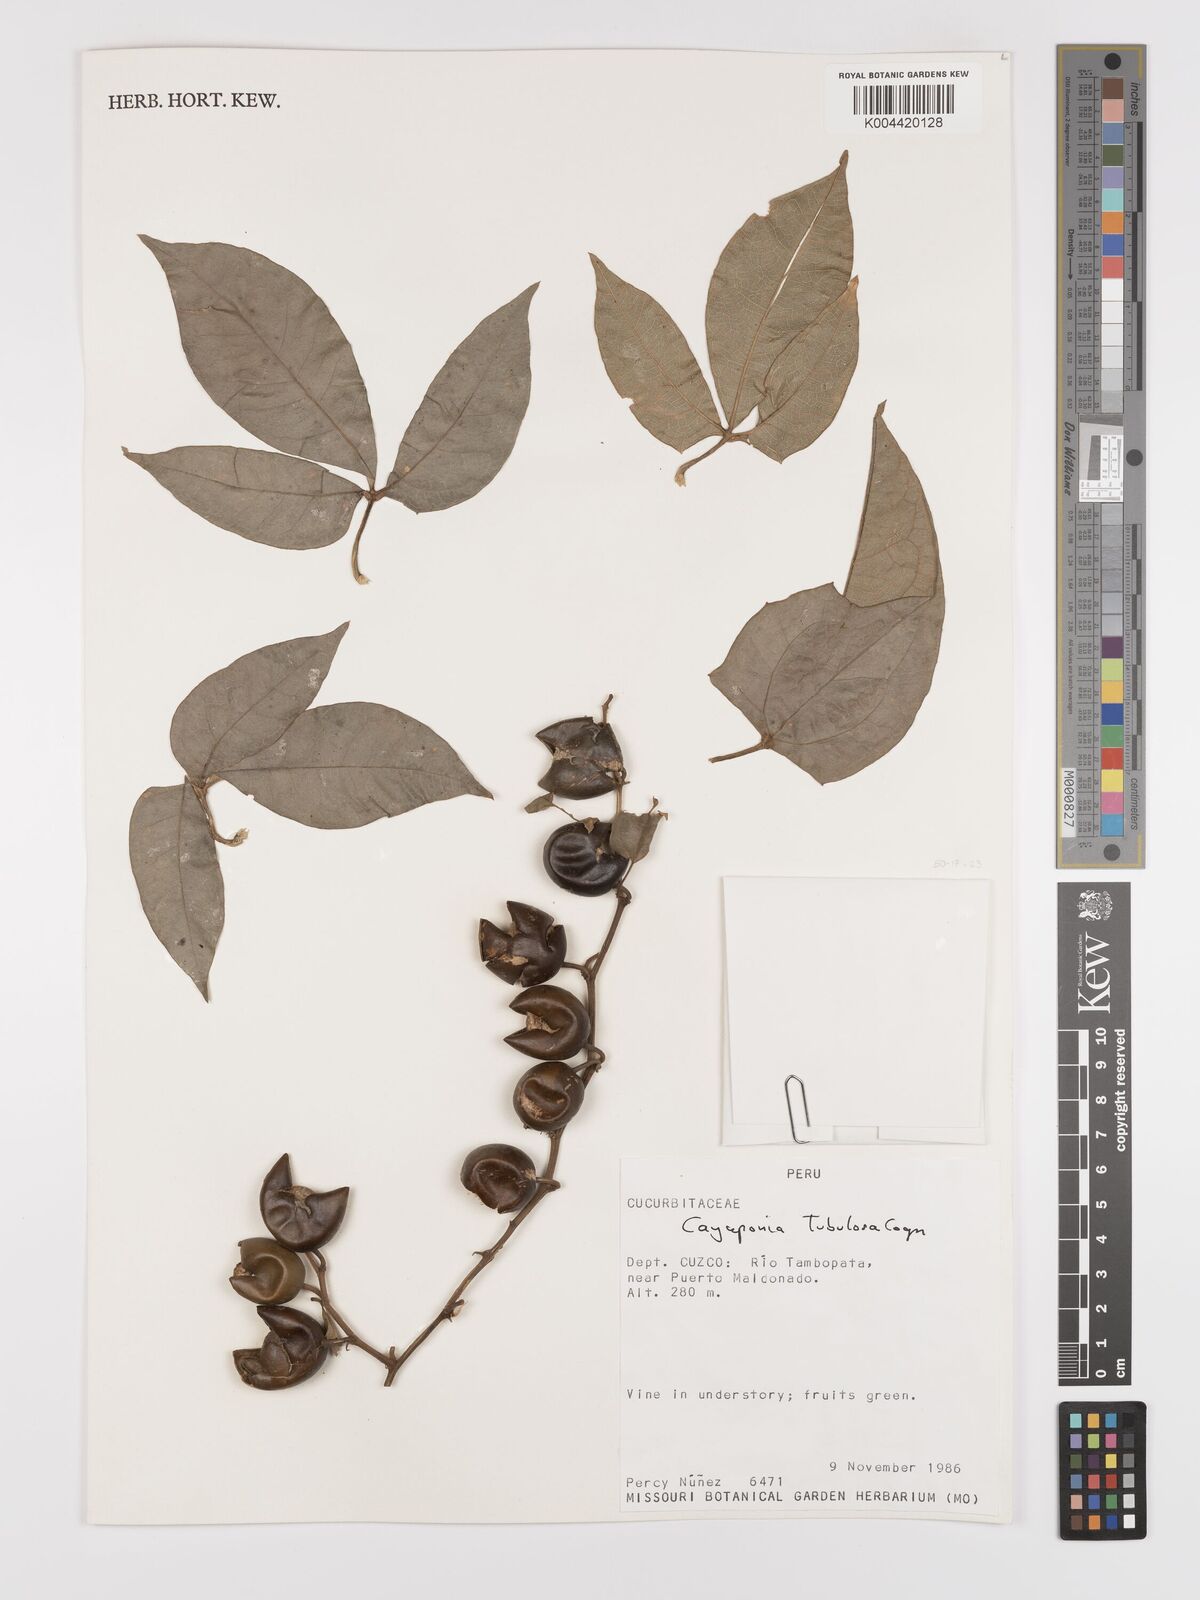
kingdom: Plantae
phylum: Tracheophyta
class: Magnoliopsida
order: Cucurbitales
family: Cucurbitaceae
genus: Cayaponia
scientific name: Cayaponia tubulosa
